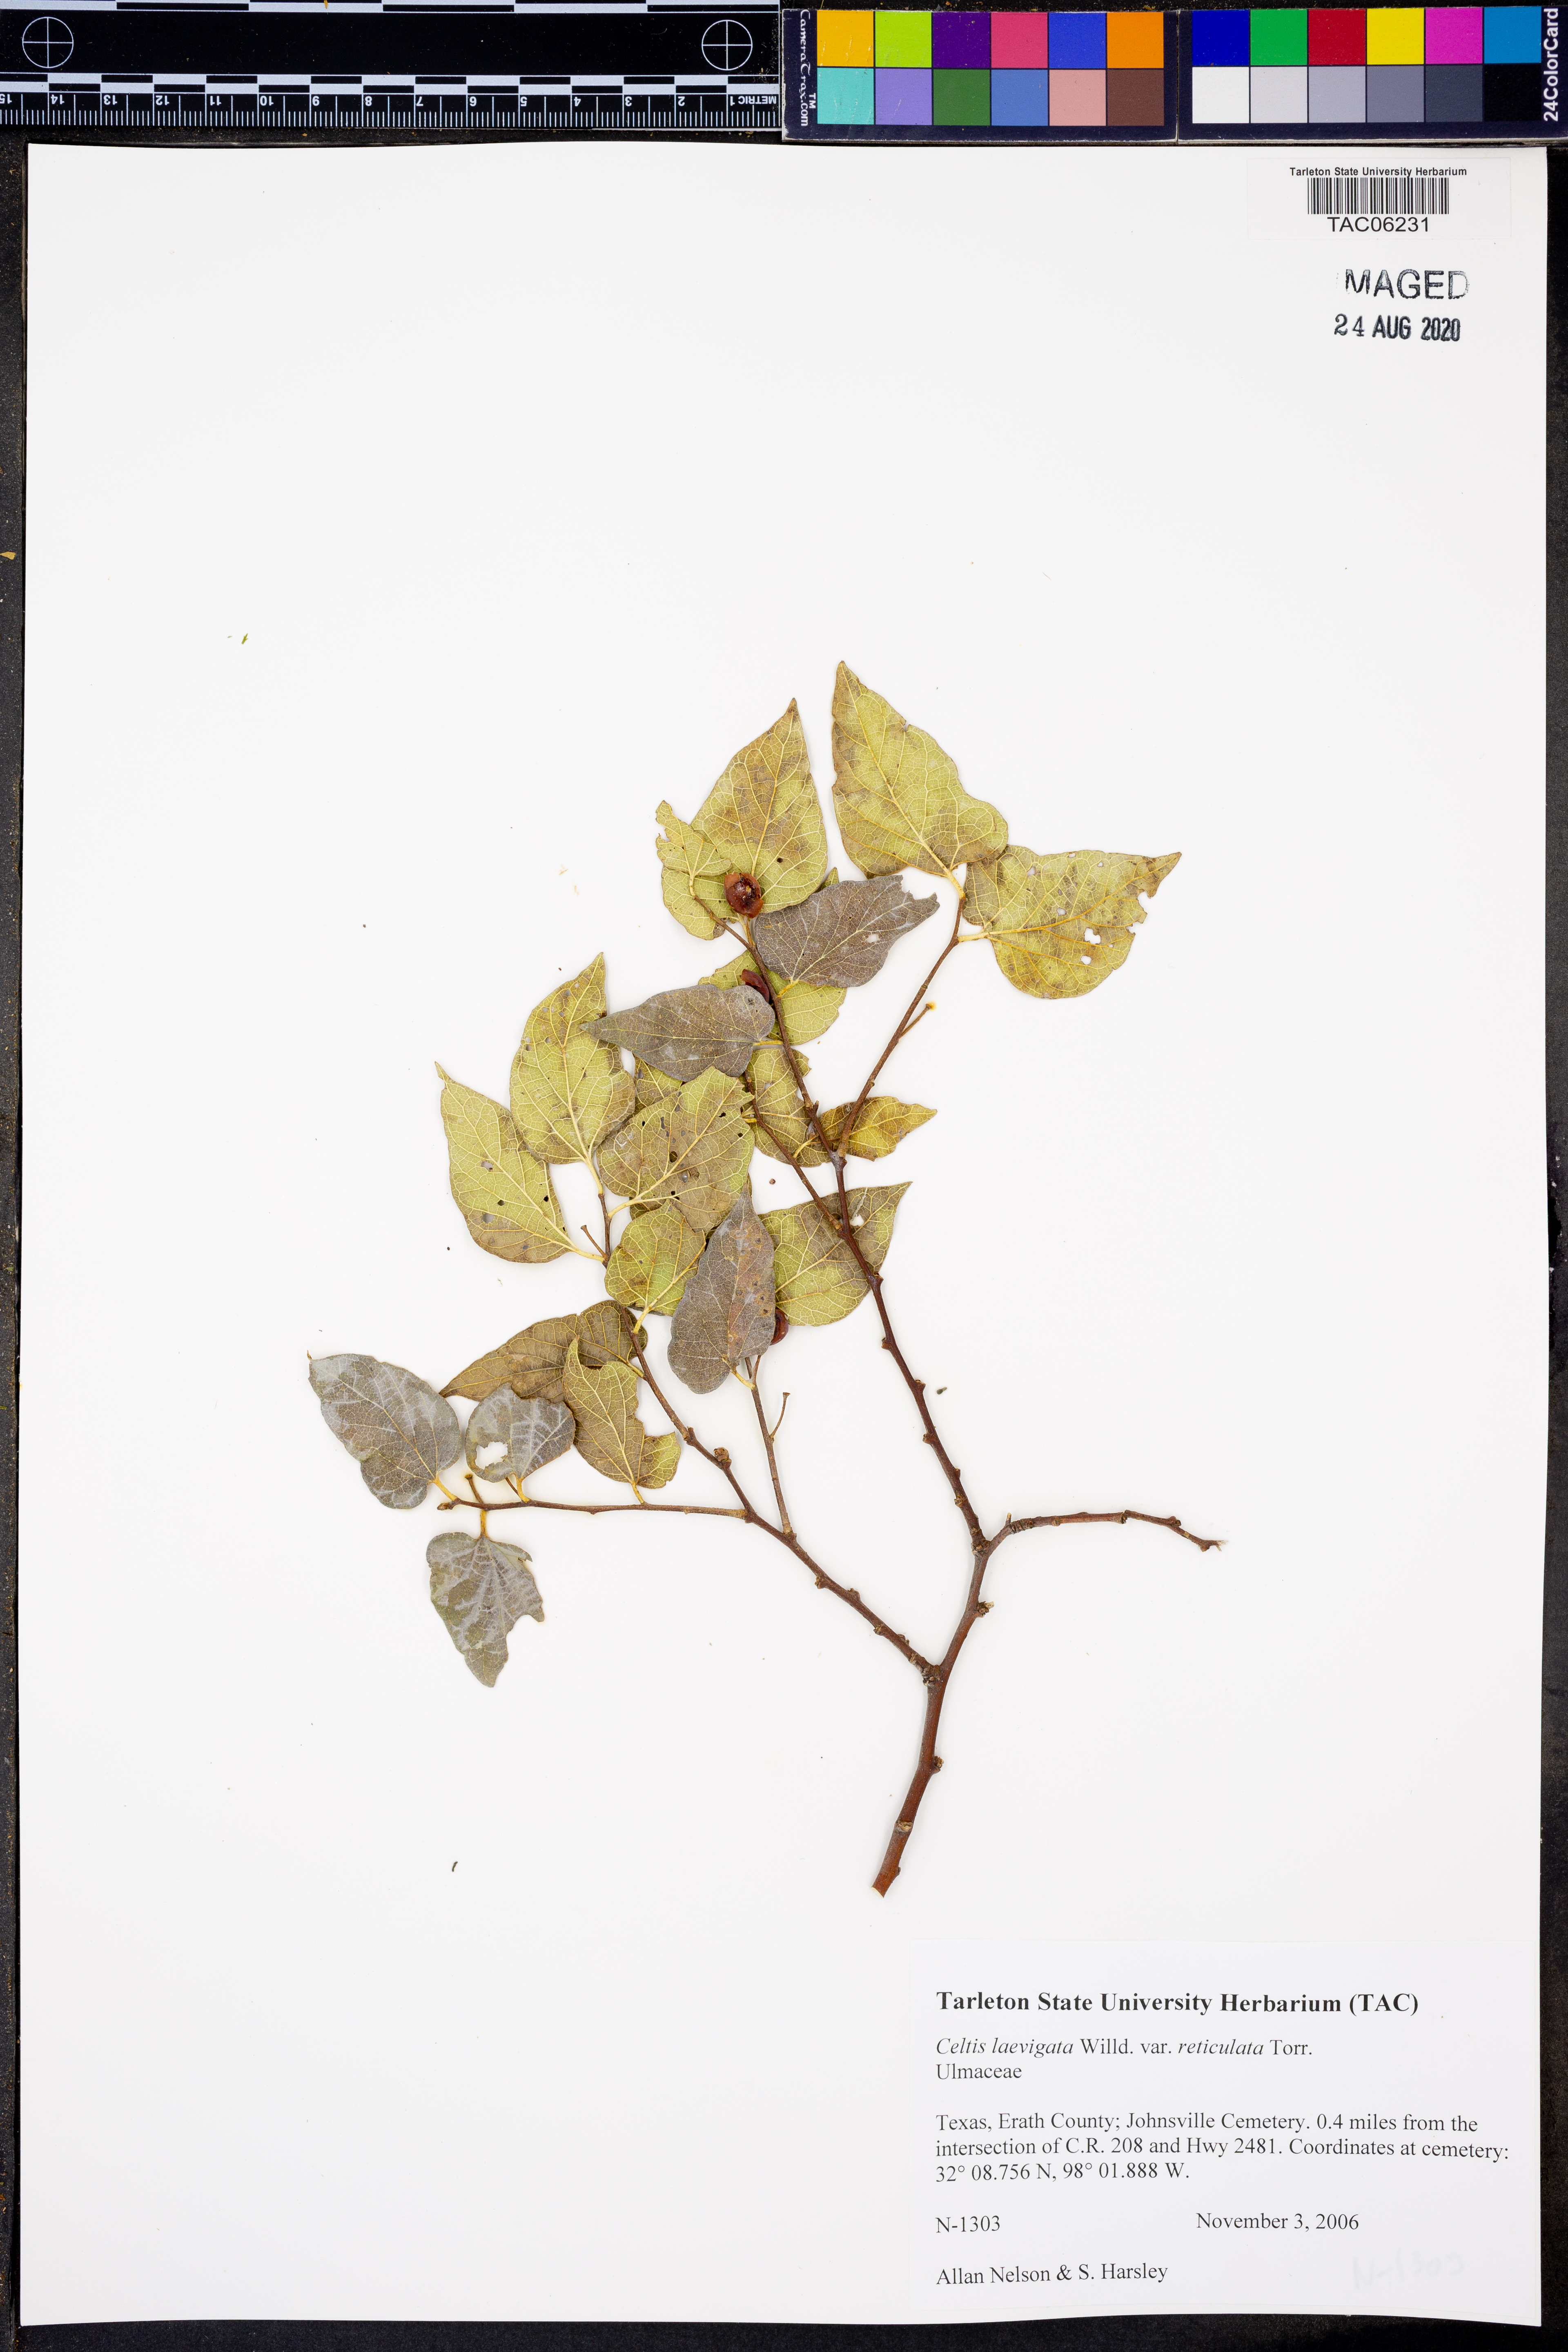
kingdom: Plantae
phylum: Tracheophyta
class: Magnoliopsida
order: Rosales
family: Cannabaceae
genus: Celtis
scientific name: Celtis reticulata
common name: Netleaf hackberry
